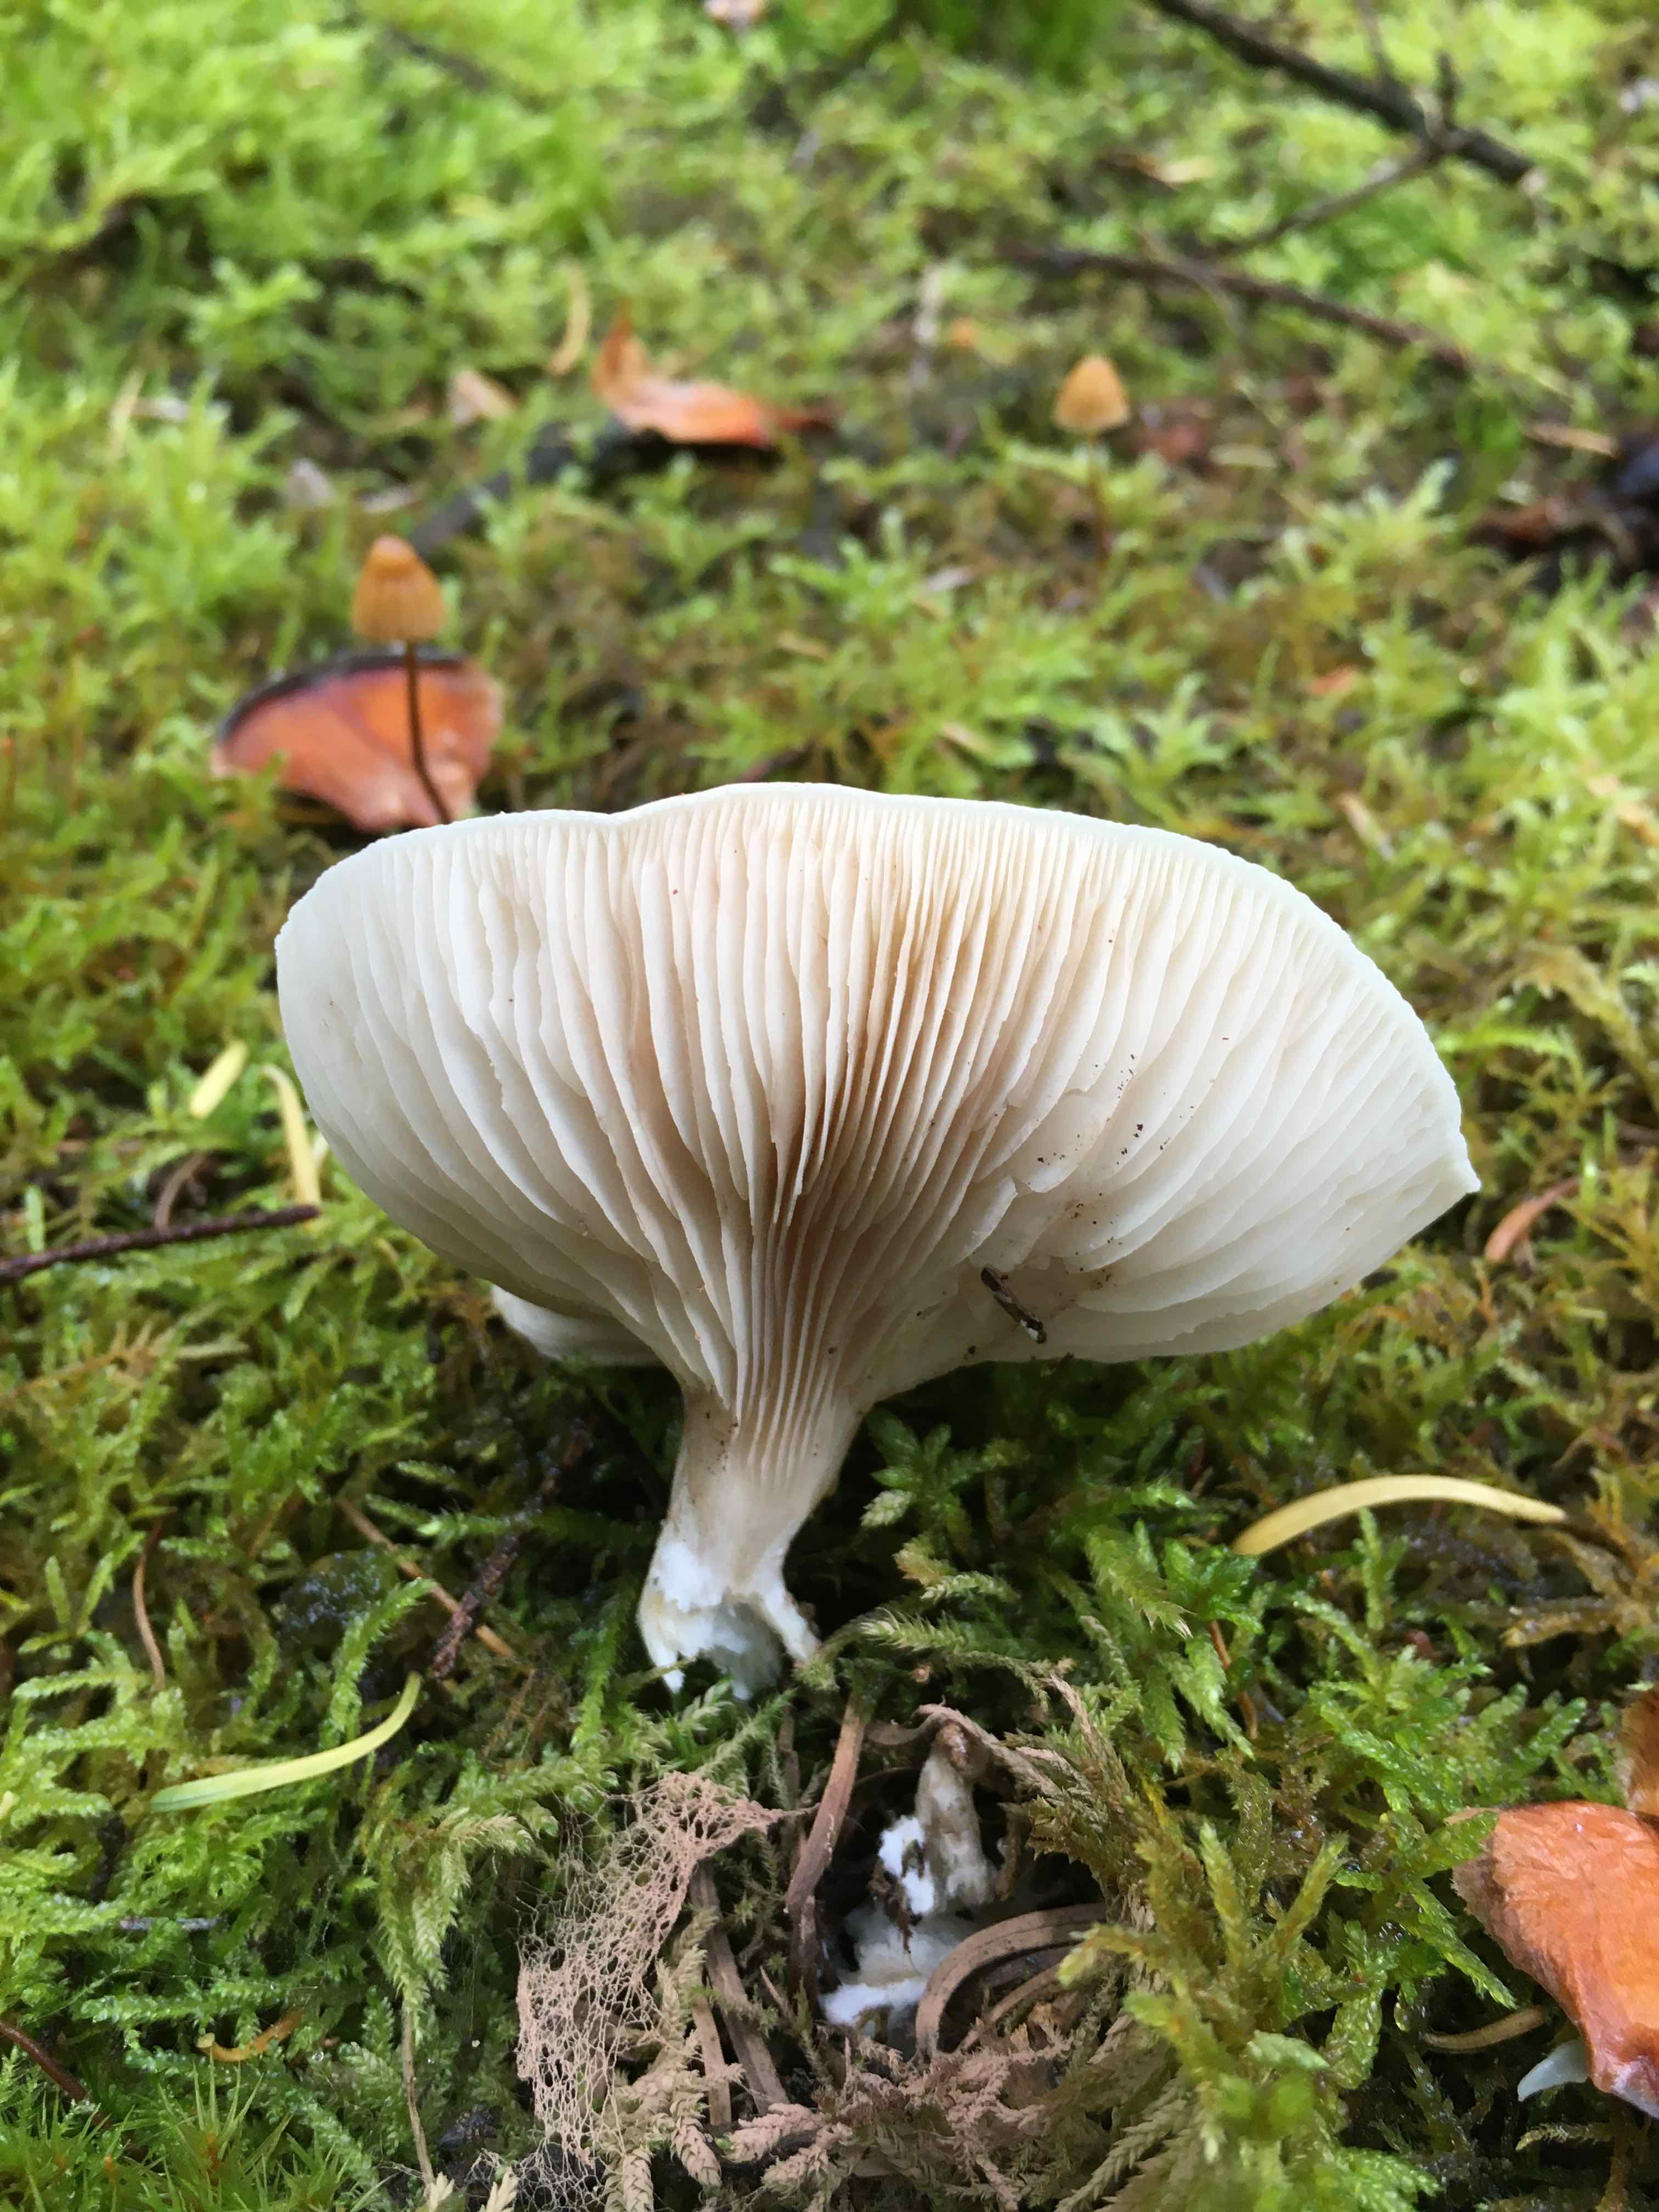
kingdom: Fungi
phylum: Basidiomycota
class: Agaricomycetes
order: Agaricales
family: Entolomataceae
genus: Clitopilus
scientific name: Clitopilus prunulus
